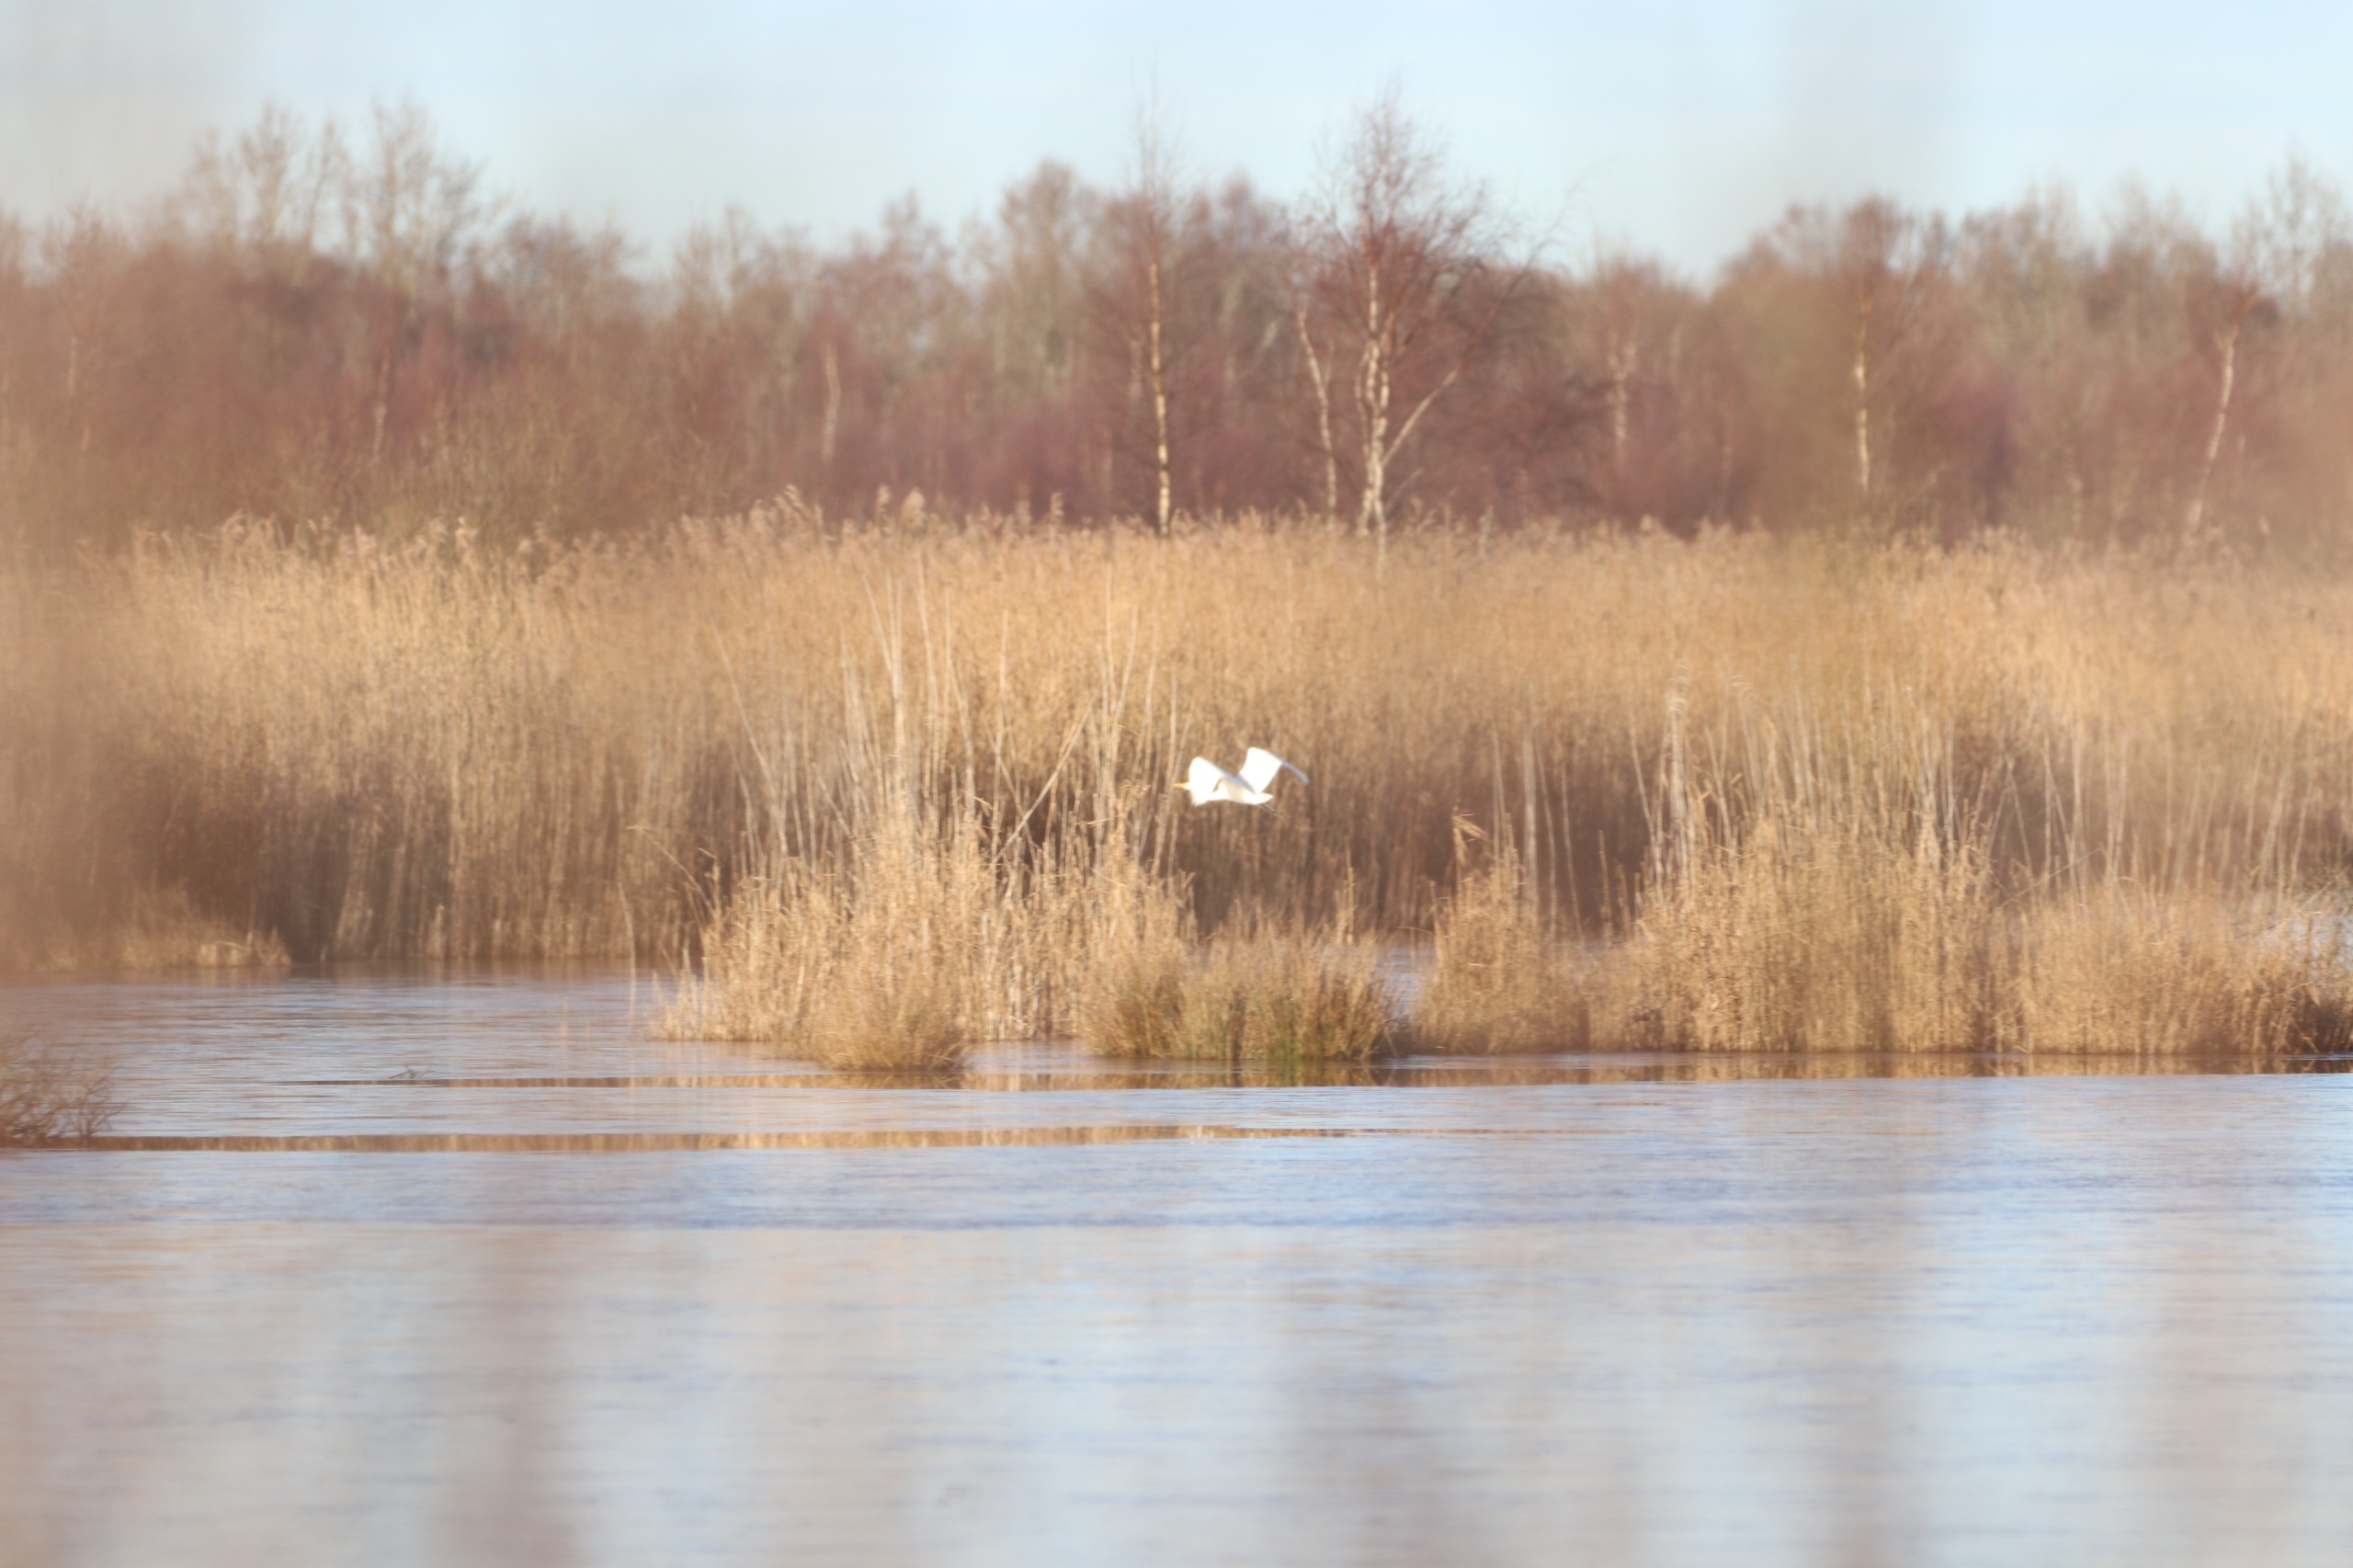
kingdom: Animalia
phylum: Chordata
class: Aves
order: Pelecaniformes
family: Ardeidae
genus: Ardea
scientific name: Ardea alba
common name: Sølvhejre
